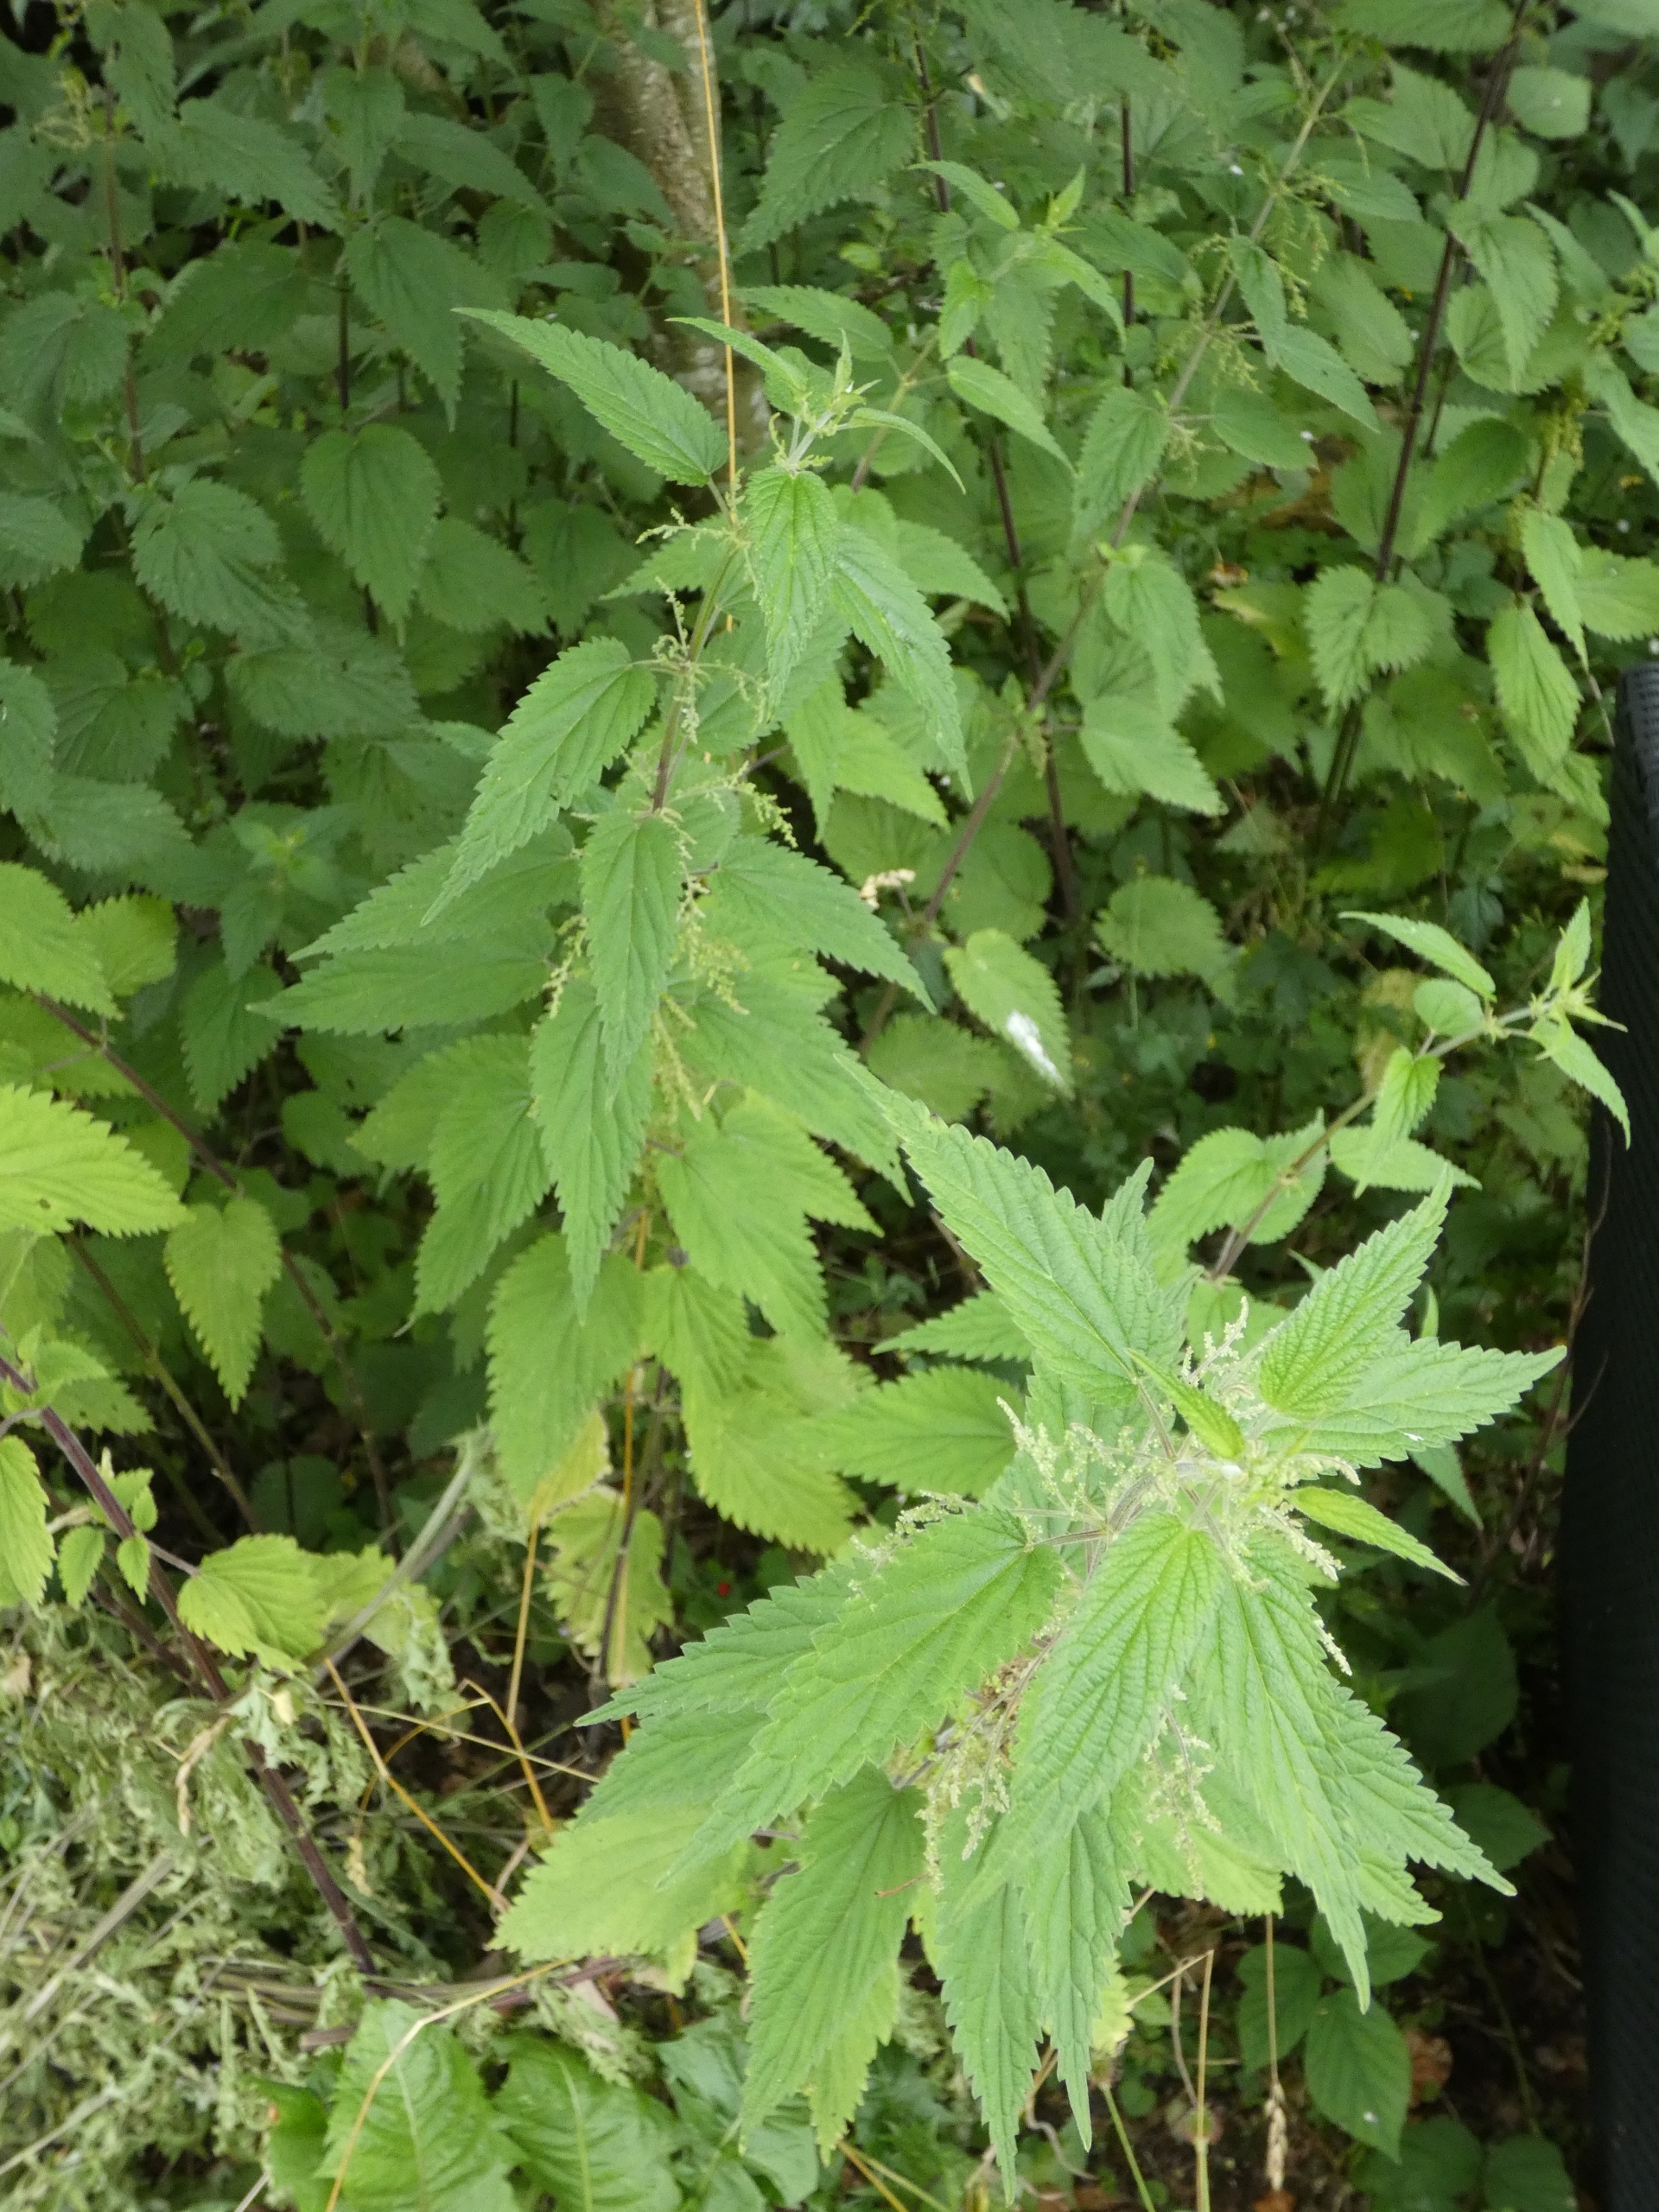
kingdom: Plantae
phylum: Tracheophyta
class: Magnoliopsida
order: Rosales
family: Urticaceae
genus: Urtica
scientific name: Urtica dioica
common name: Skov-nælde
